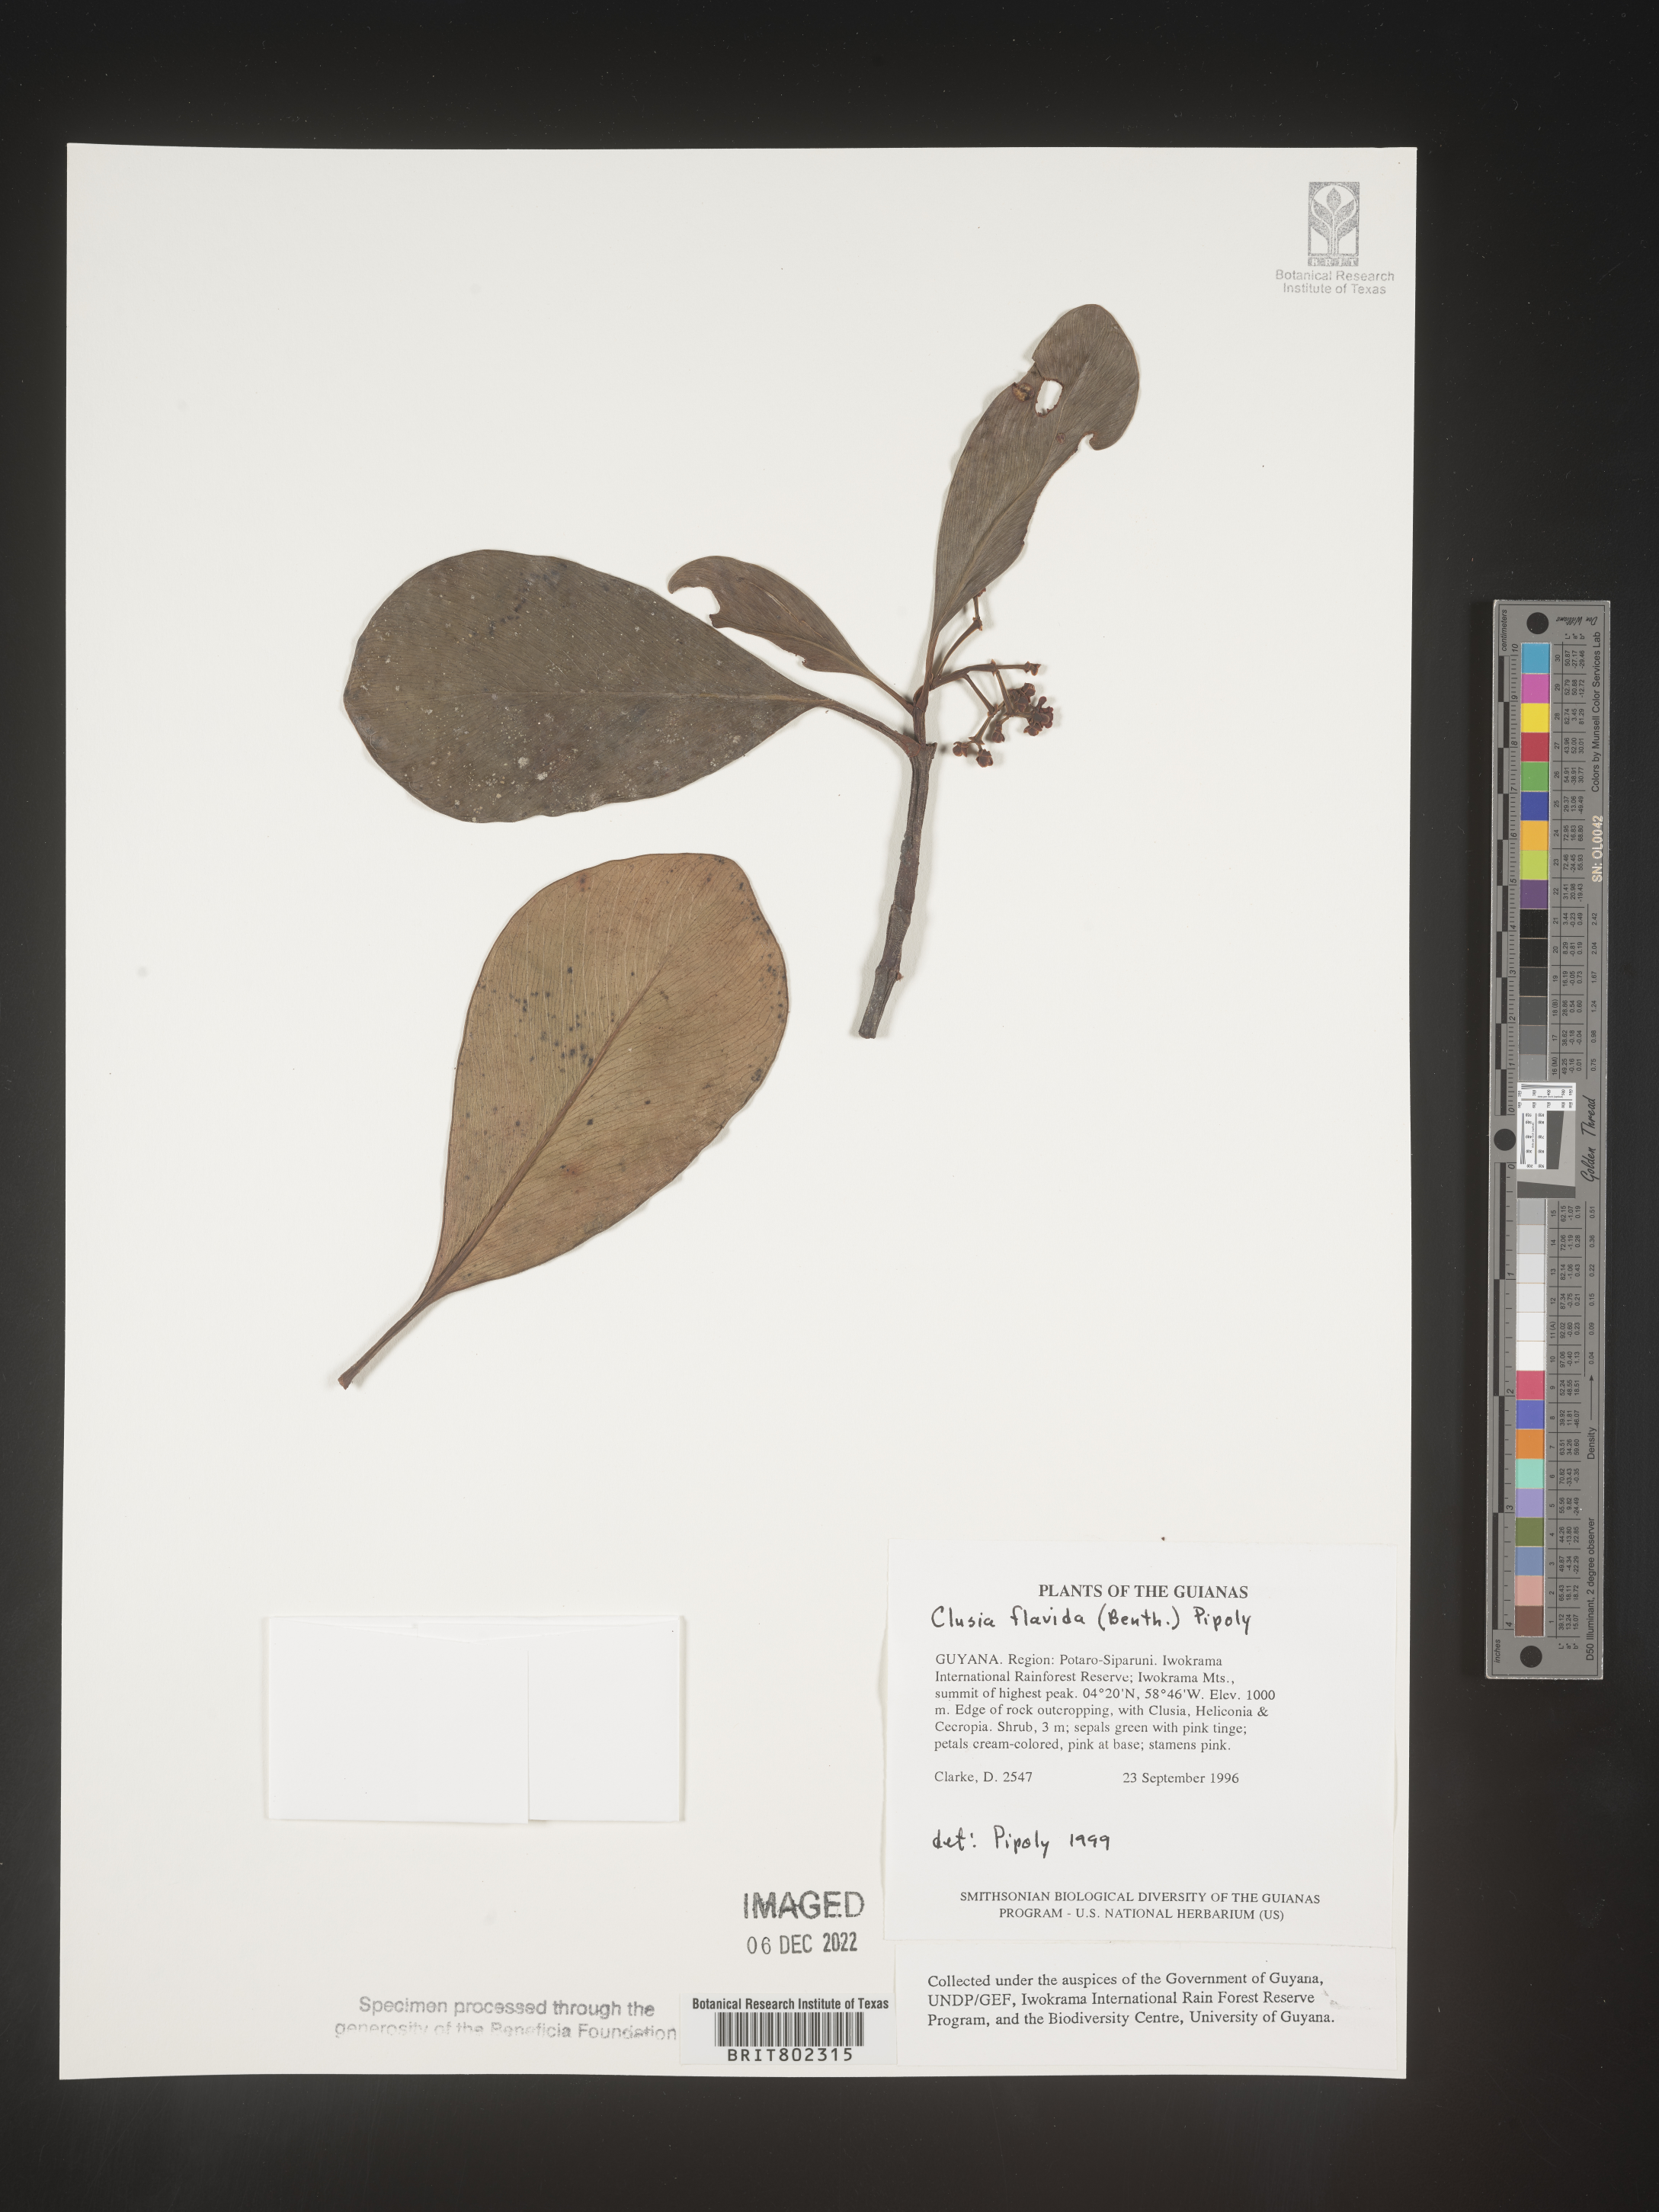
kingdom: Plantae
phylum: Tracheophyta
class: Magnoliopsida
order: Malpighiales
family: Clusiaceae
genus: Clusia
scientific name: Clusia flavida
